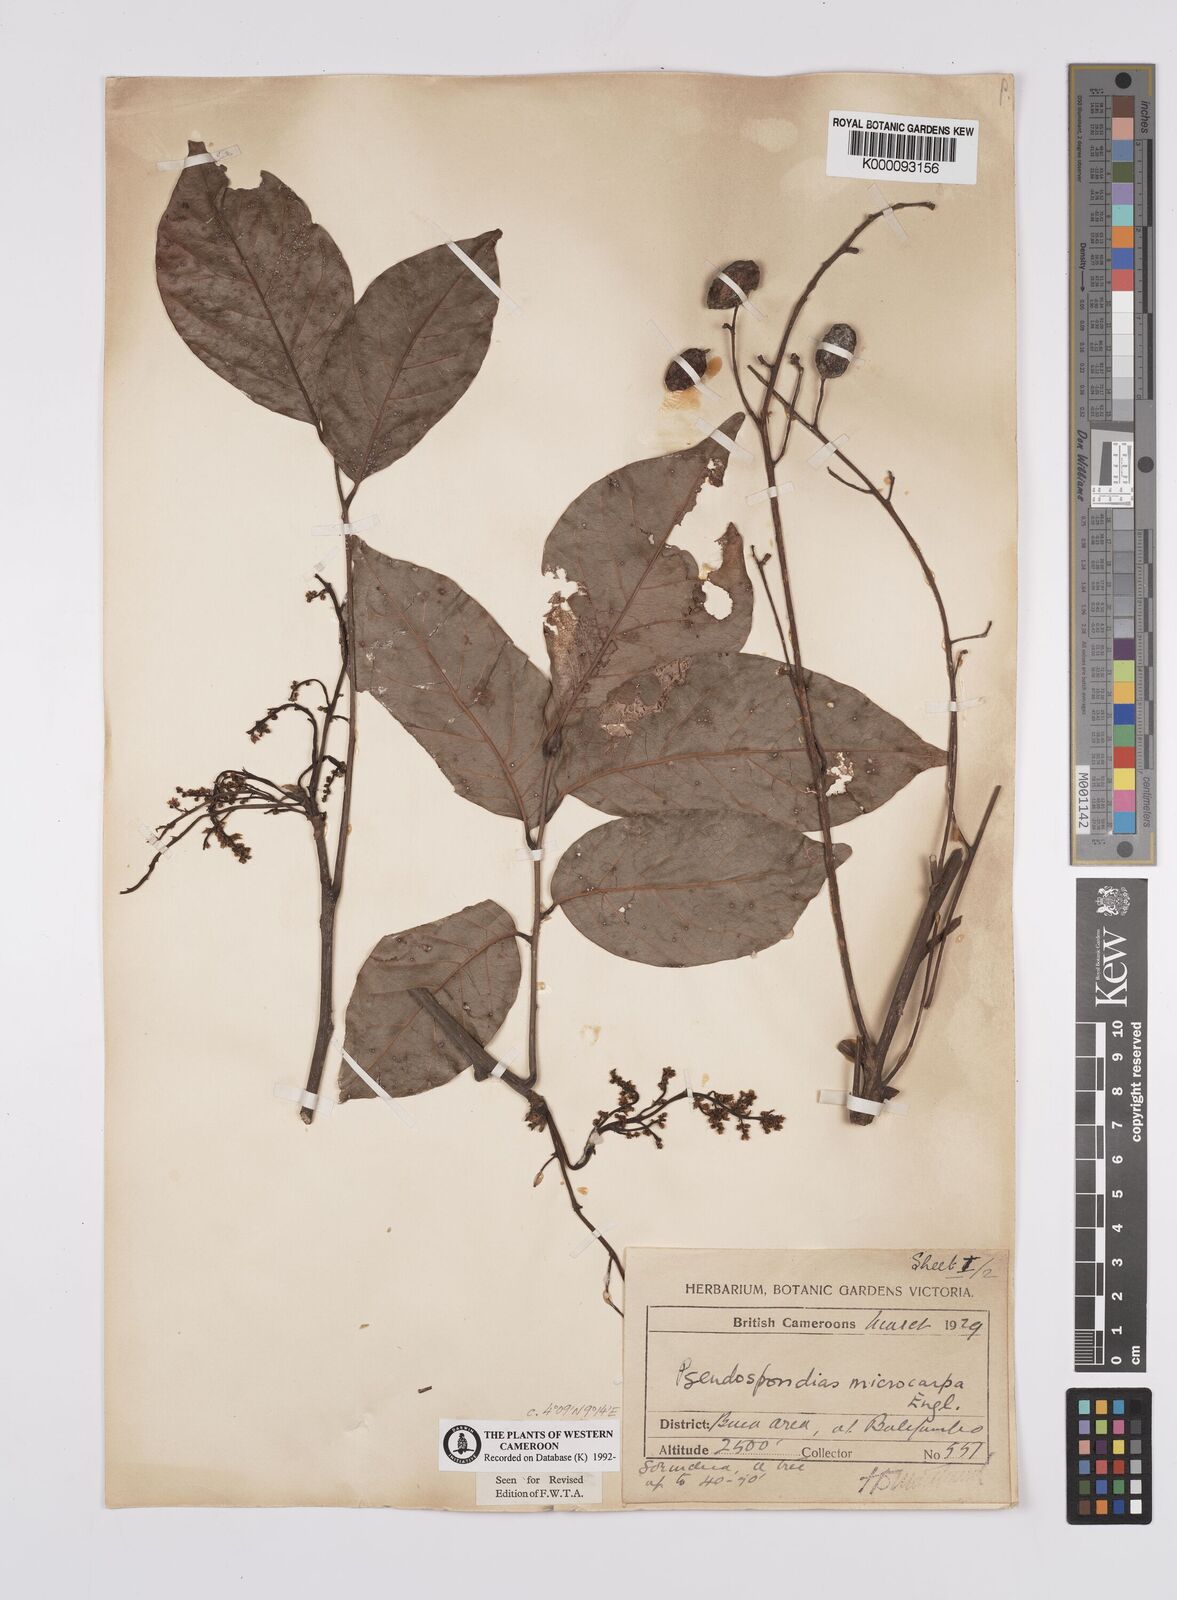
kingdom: Plantae
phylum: Tracheophyta
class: Magnoliopsida
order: Sapindales
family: Anacardiaceae
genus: Pseudospondias
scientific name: Pseudospondias microcarpa
